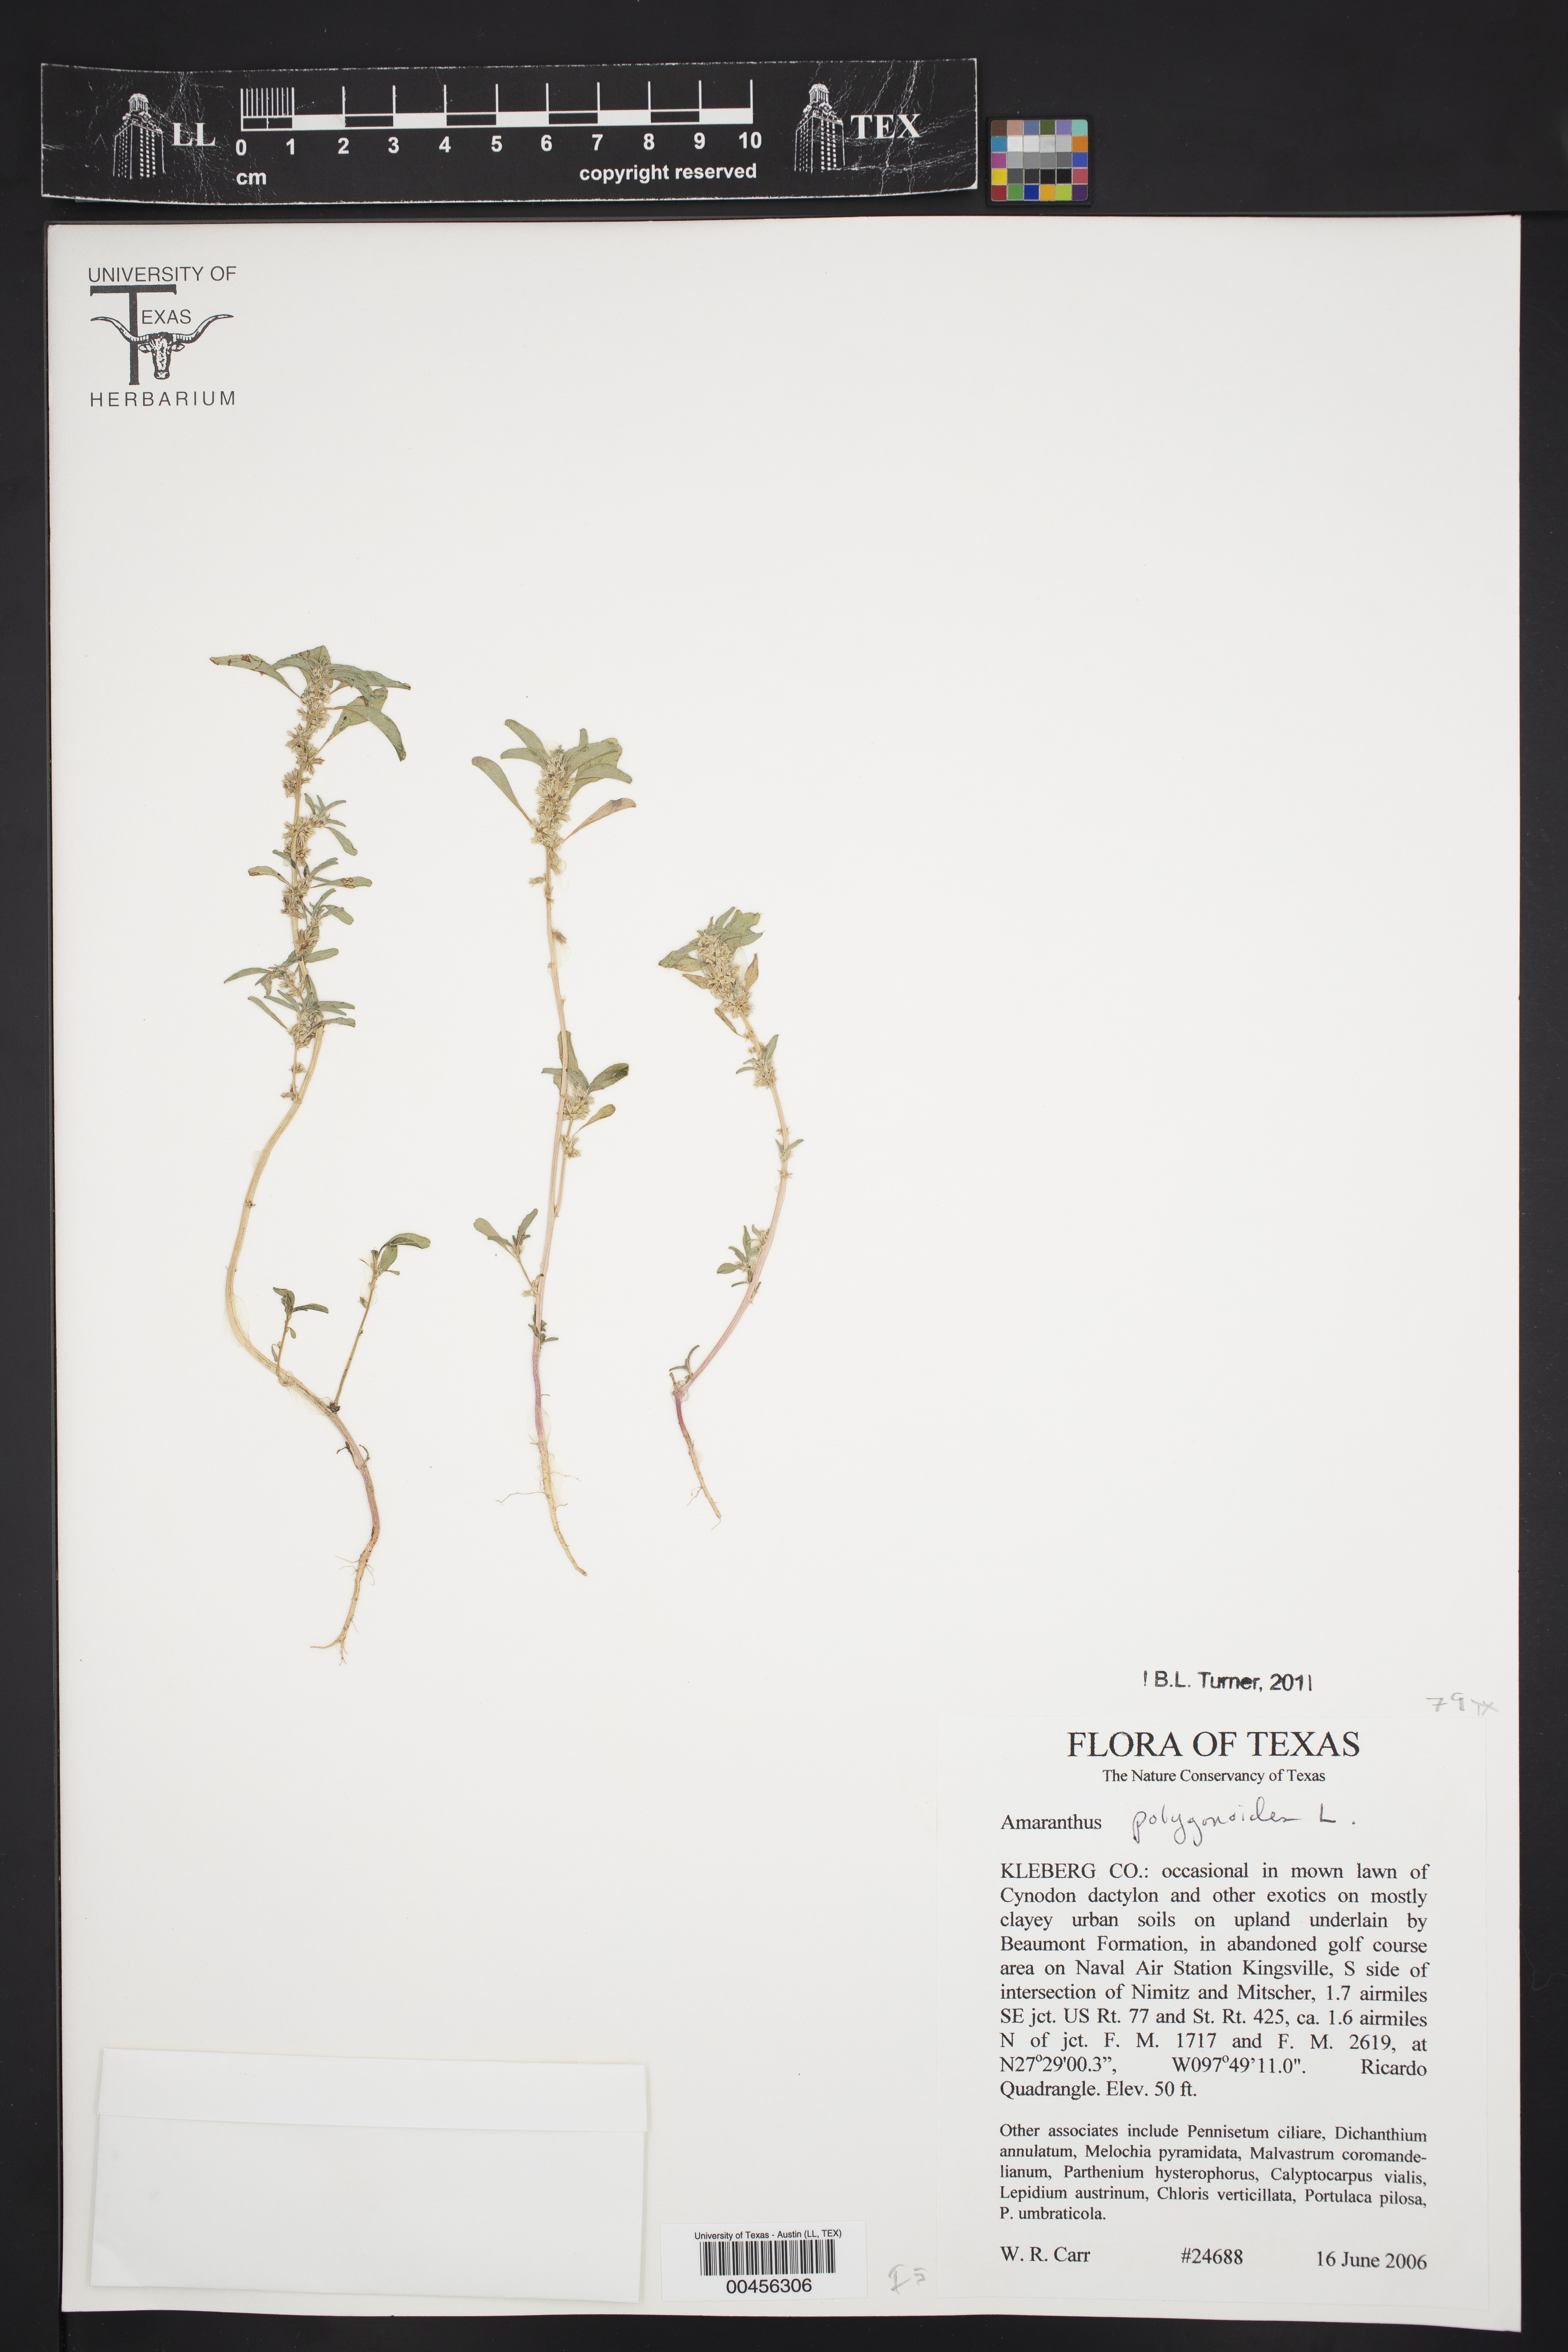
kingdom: Plantae
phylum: Tracheophyta
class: Magnoliopsida
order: Caryophyllales
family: Amaranthaceae
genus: Amaranthus
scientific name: Amaranthus polygonoides
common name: Tropical amaranth
